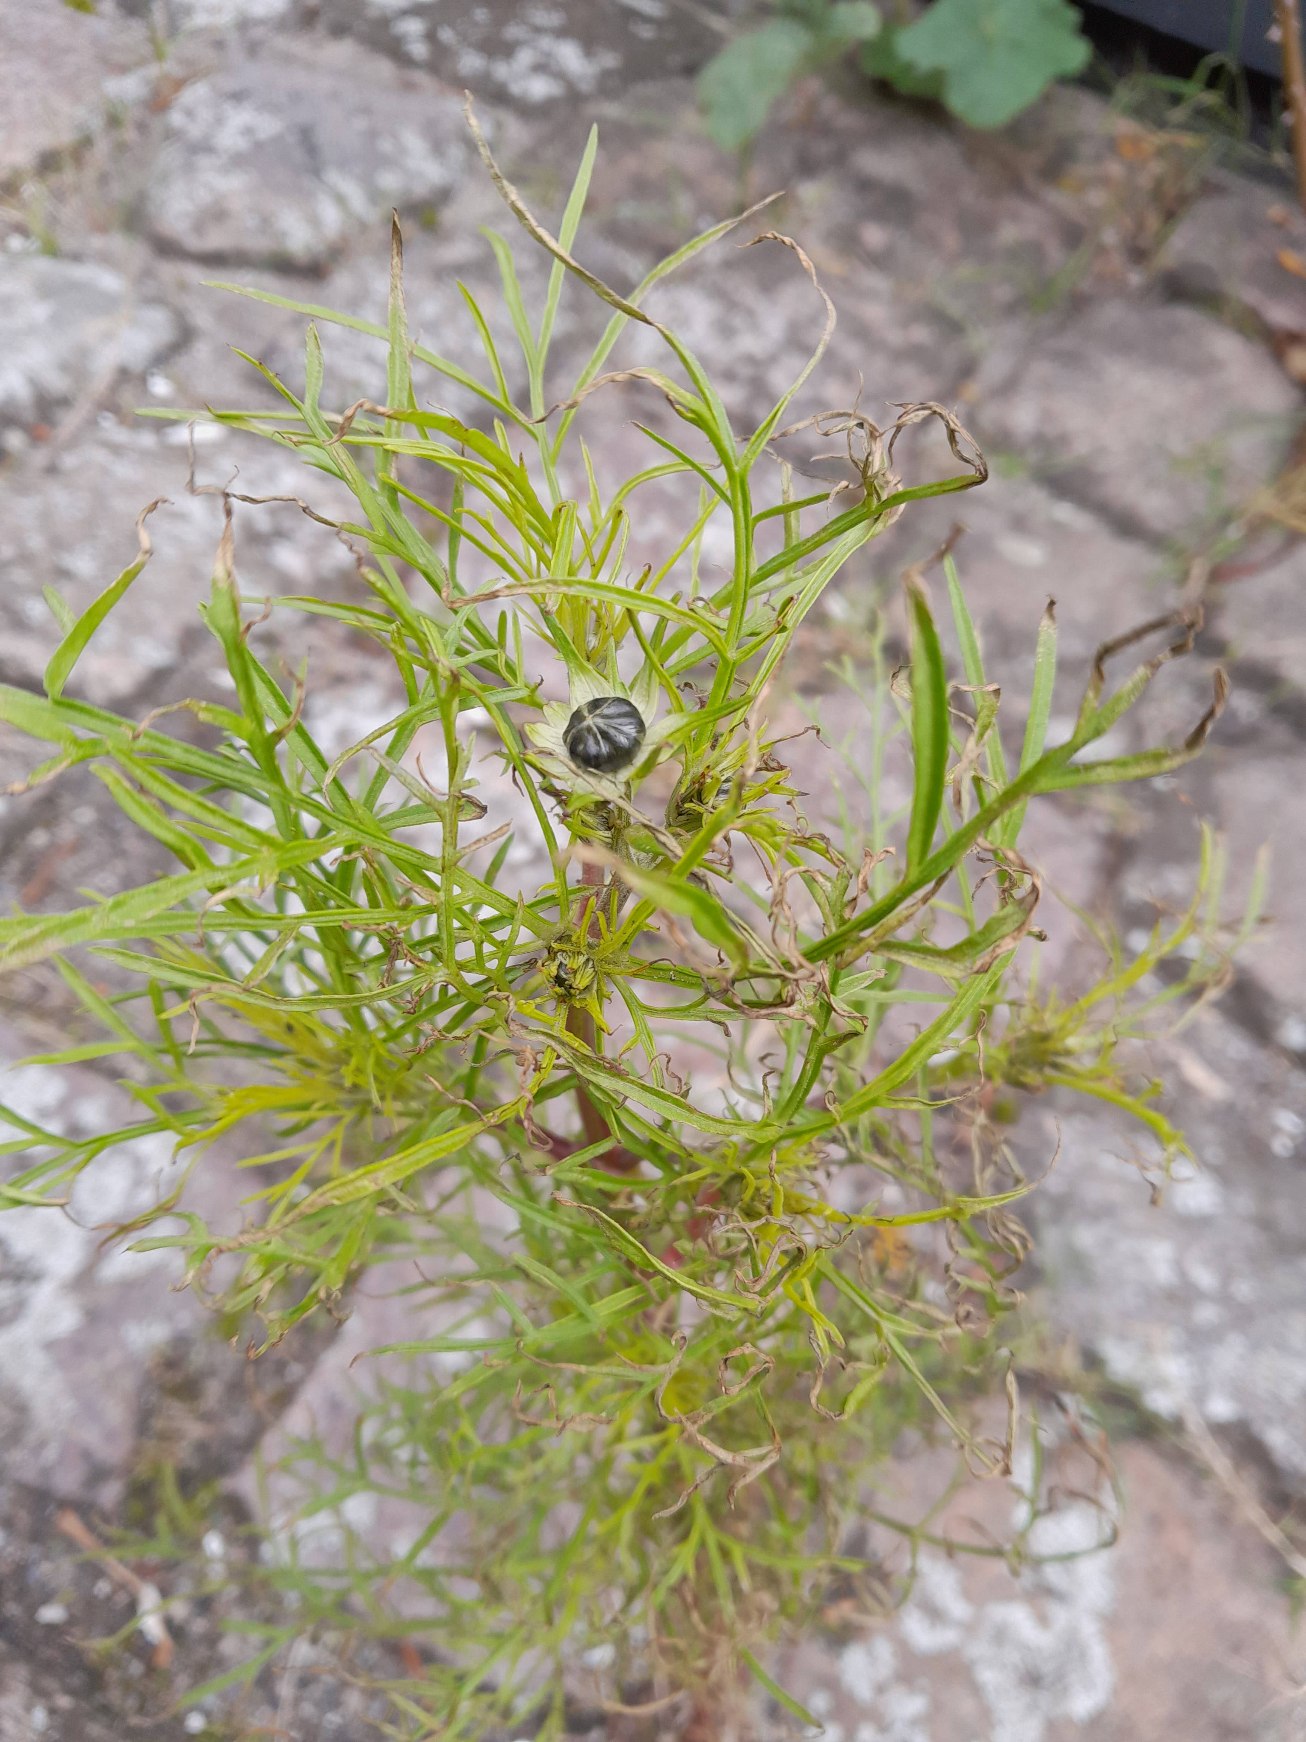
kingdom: Plantae
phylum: Tracheophyta
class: Magnoliopsida
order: Asterales
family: Asteraceae
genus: Cosmos
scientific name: Cosmos bipinnatus
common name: Stolt kavaler
